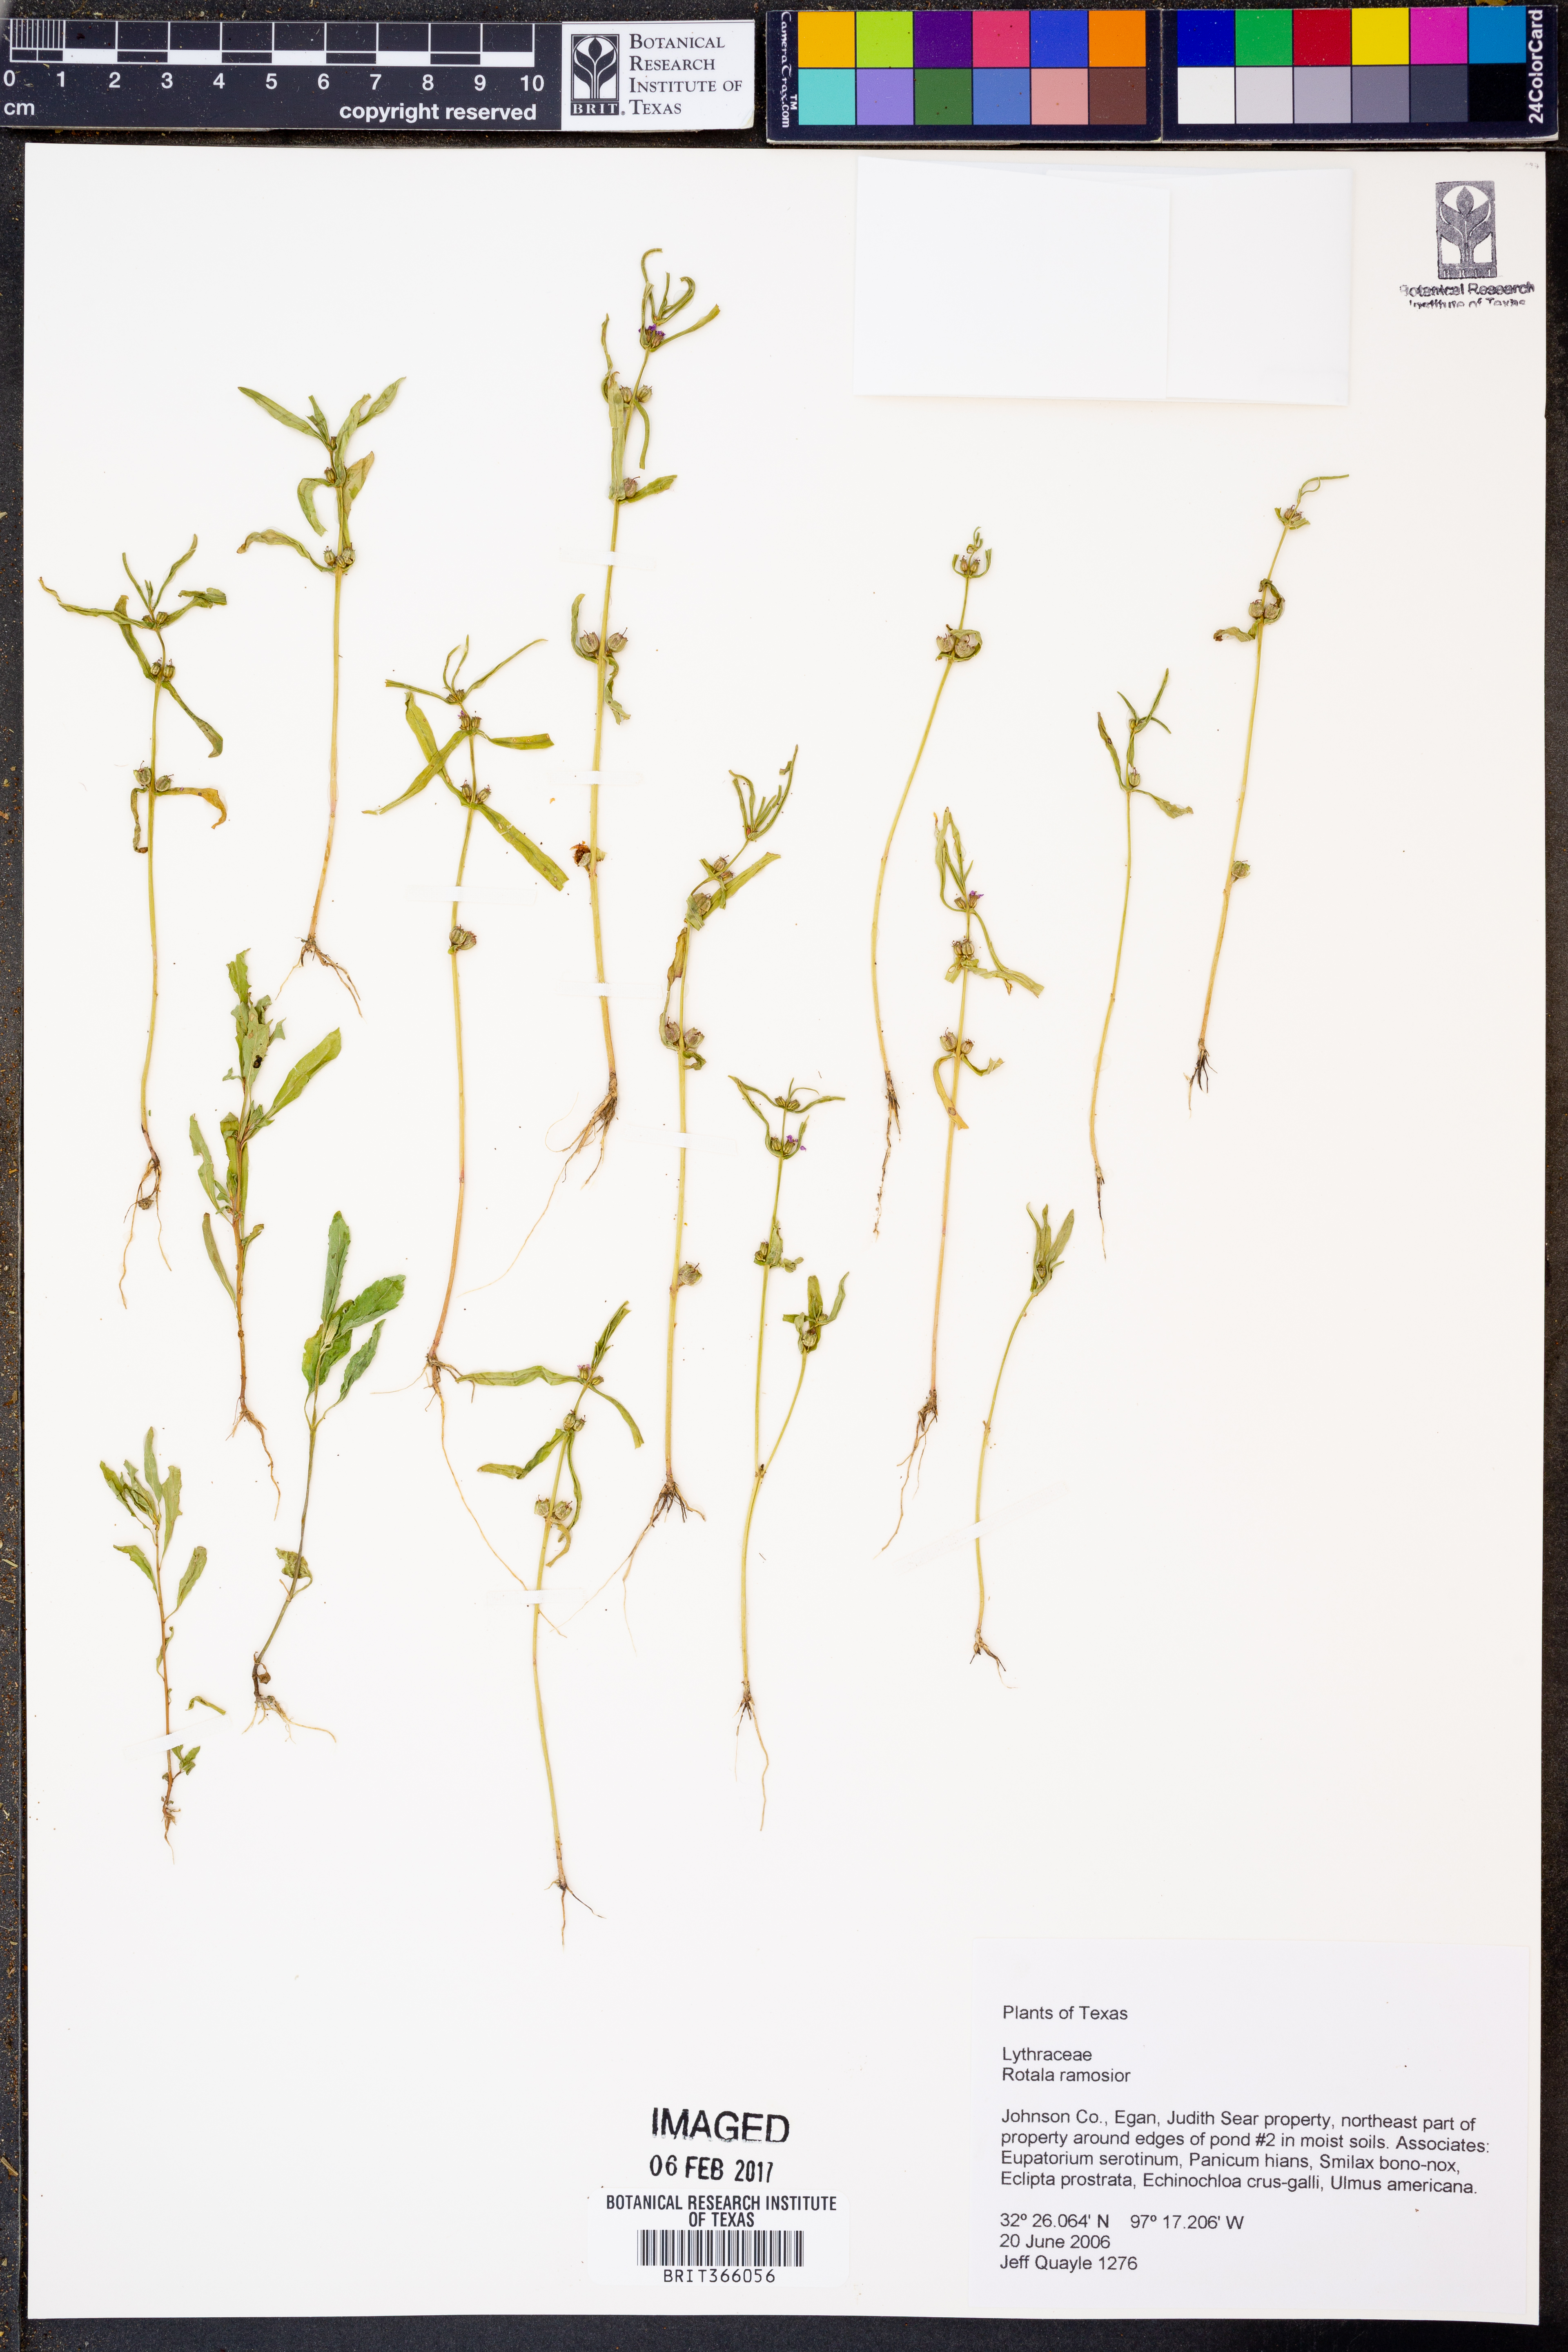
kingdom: Plantae
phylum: Tracheophyta
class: Magnoliopsida
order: Myrtales
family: Lythraceae
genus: Rotala
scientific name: Rotala ramosior
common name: Lowland rotala
